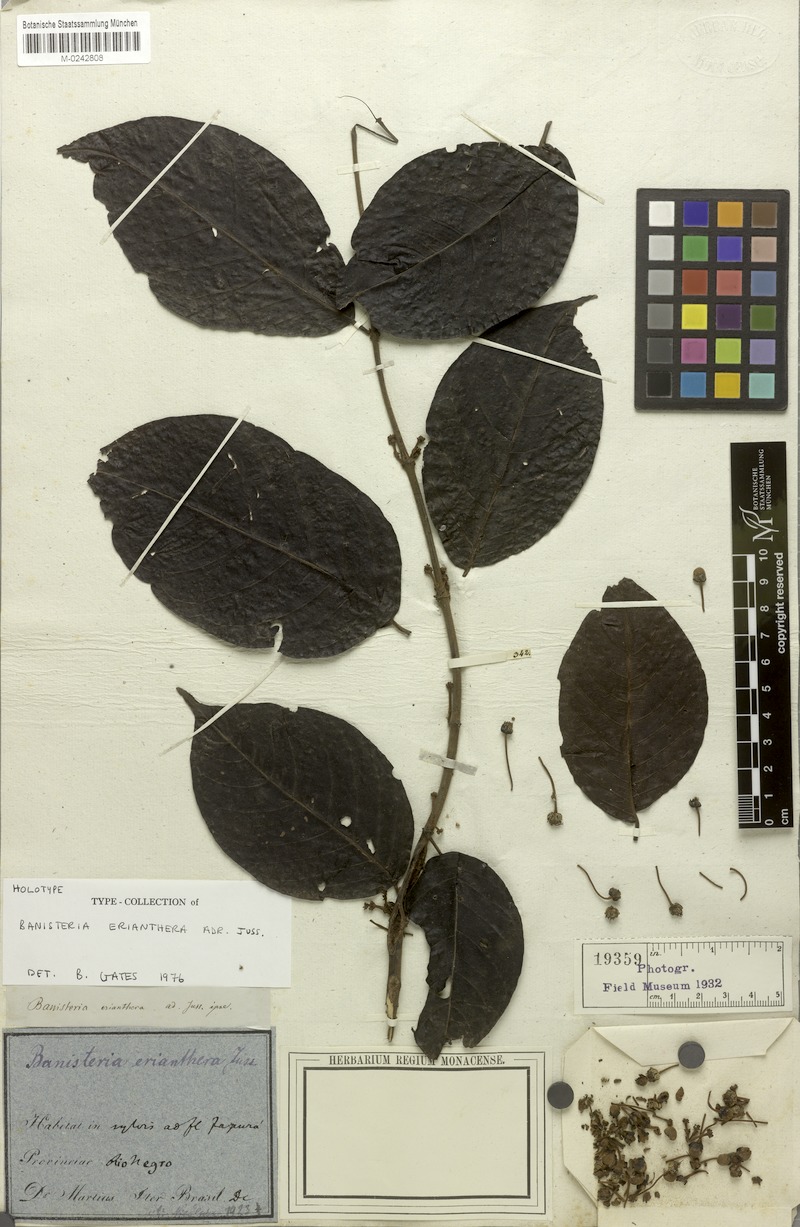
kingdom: Plantae
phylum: Tracheophyta
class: Magnoliopsida
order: Malpighiales
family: Malpighiaceae
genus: Diplopterys
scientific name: Diplopterys erianthera
